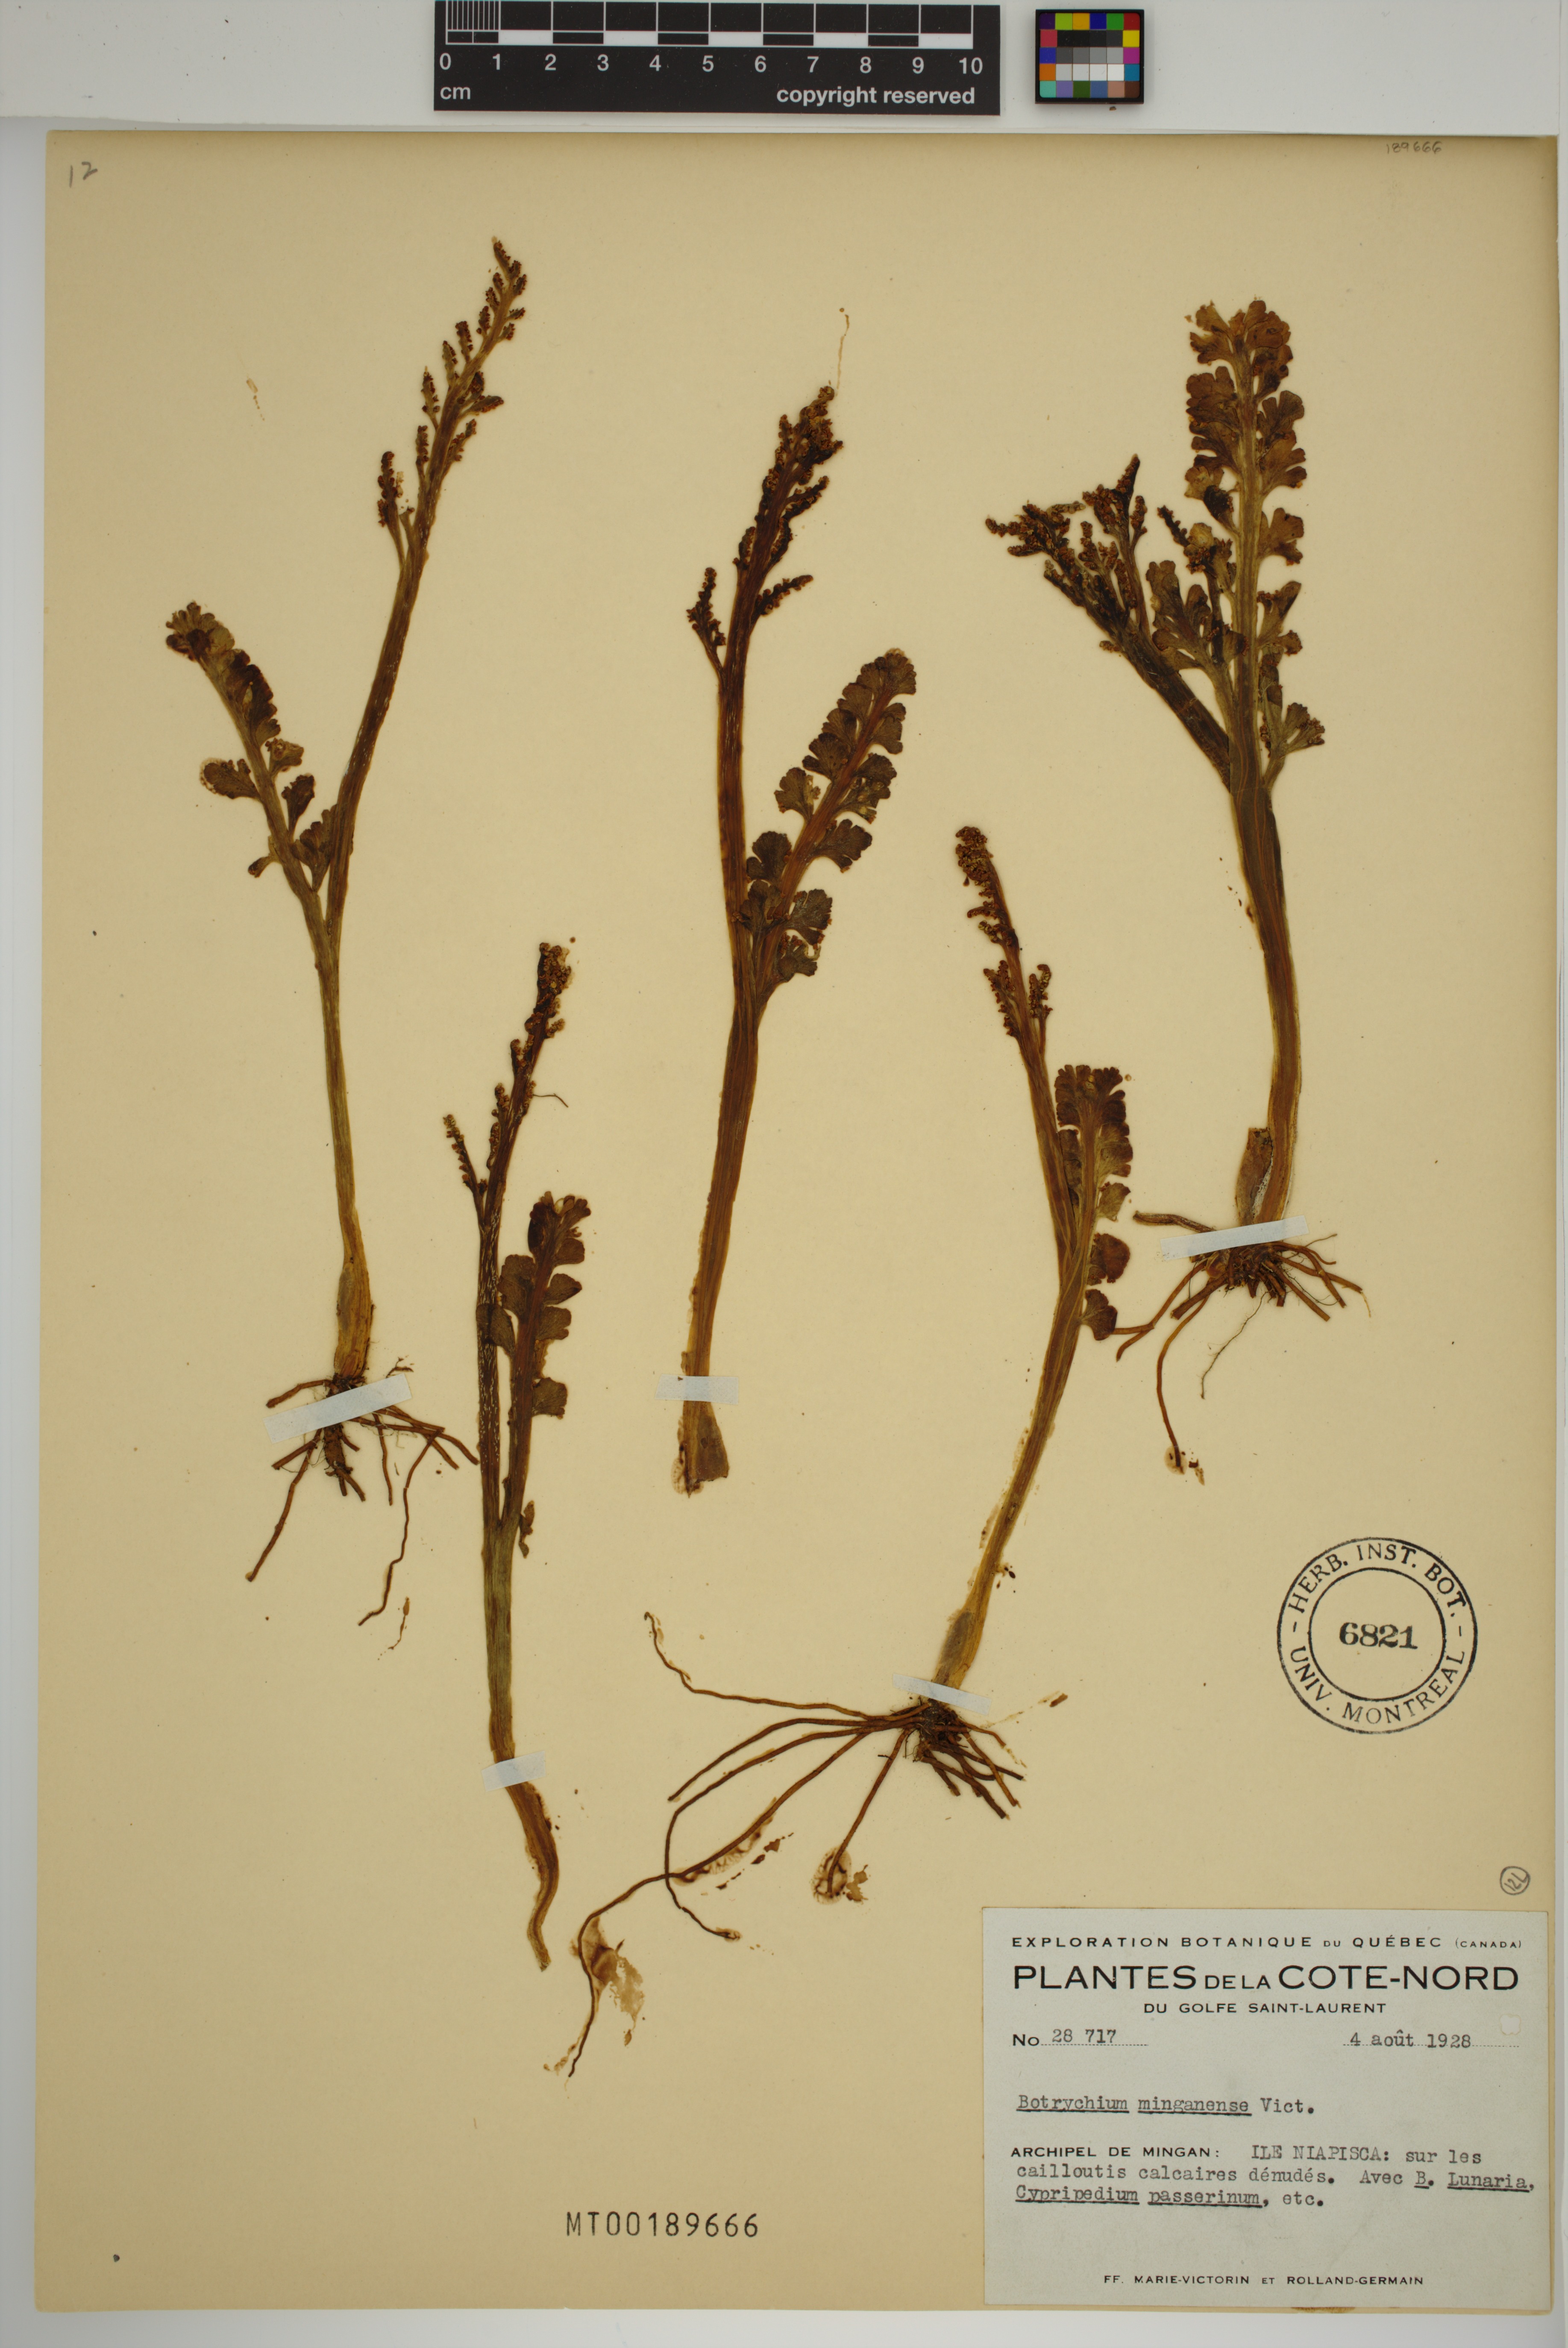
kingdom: Plantae
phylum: Tracheophyta
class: Polypodiopsida
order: Ophioglossales
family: Ophioglossaceae
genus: Botrychium
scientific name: Botrychium minganense
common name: Mingan grapefern
